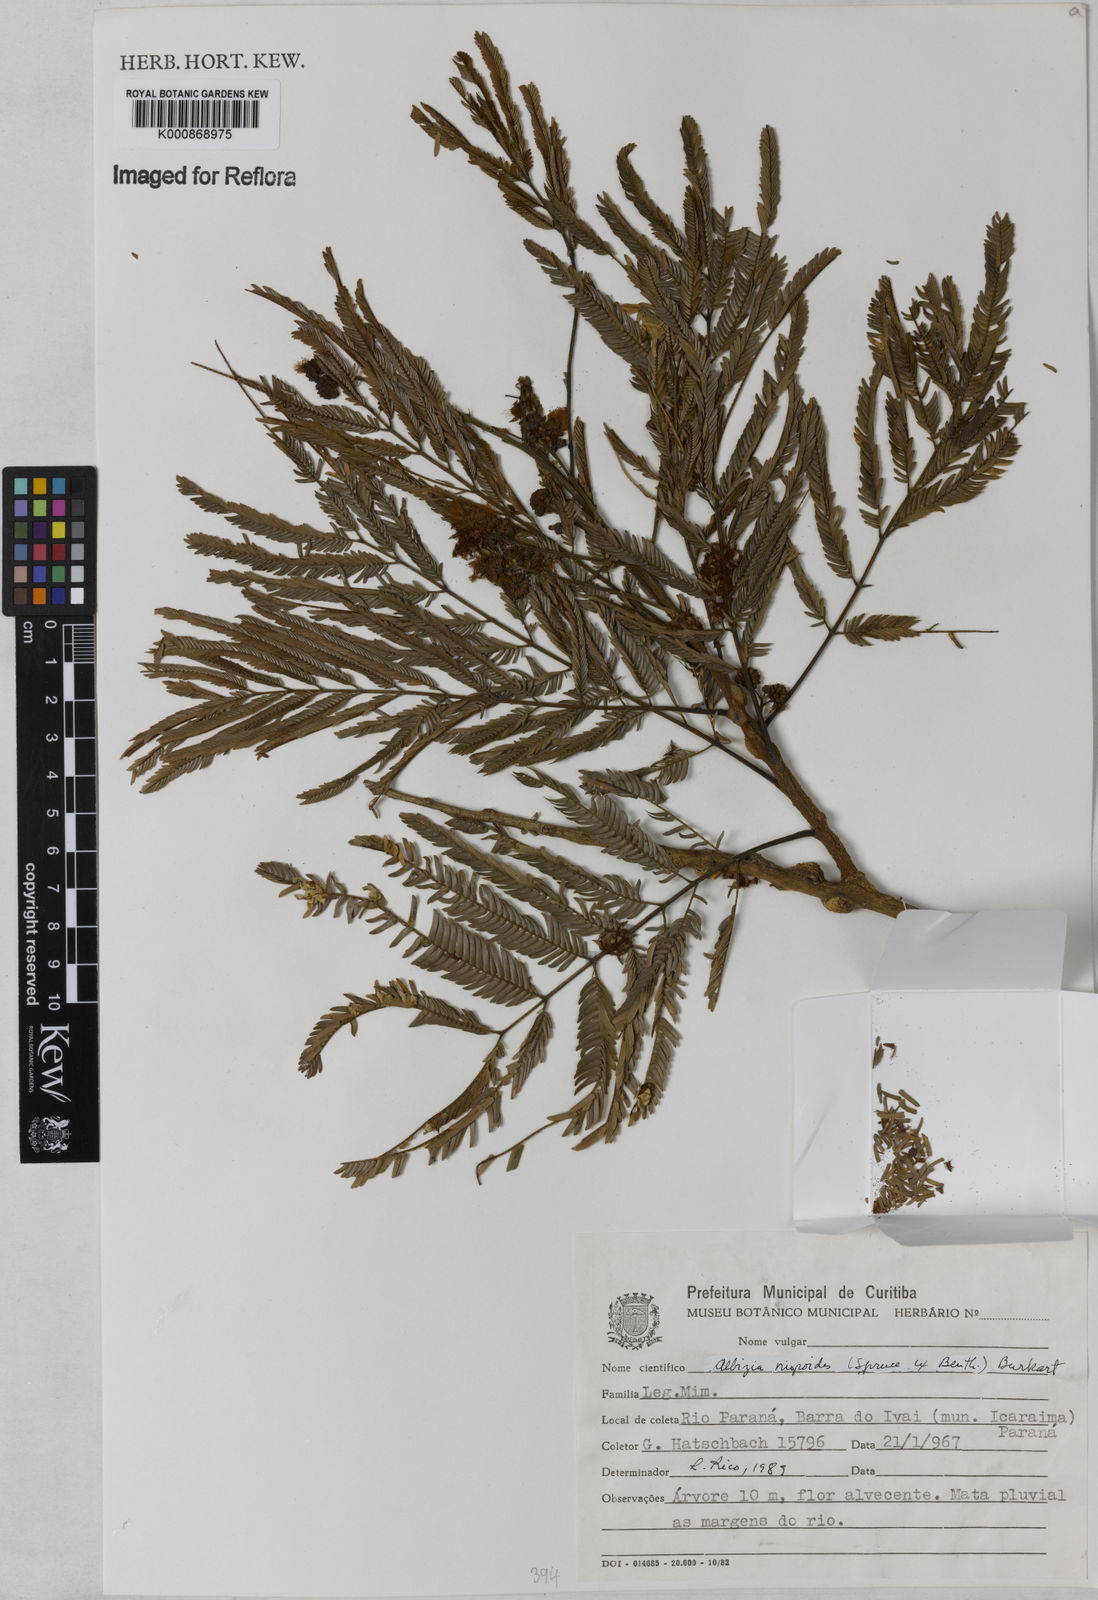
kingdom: Plantae
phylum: Tracheophyta
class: Magnoliopsida
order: Fabales
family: Fabaceae
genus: Albizia
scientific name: Albizia niopoides
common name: Silk tree
